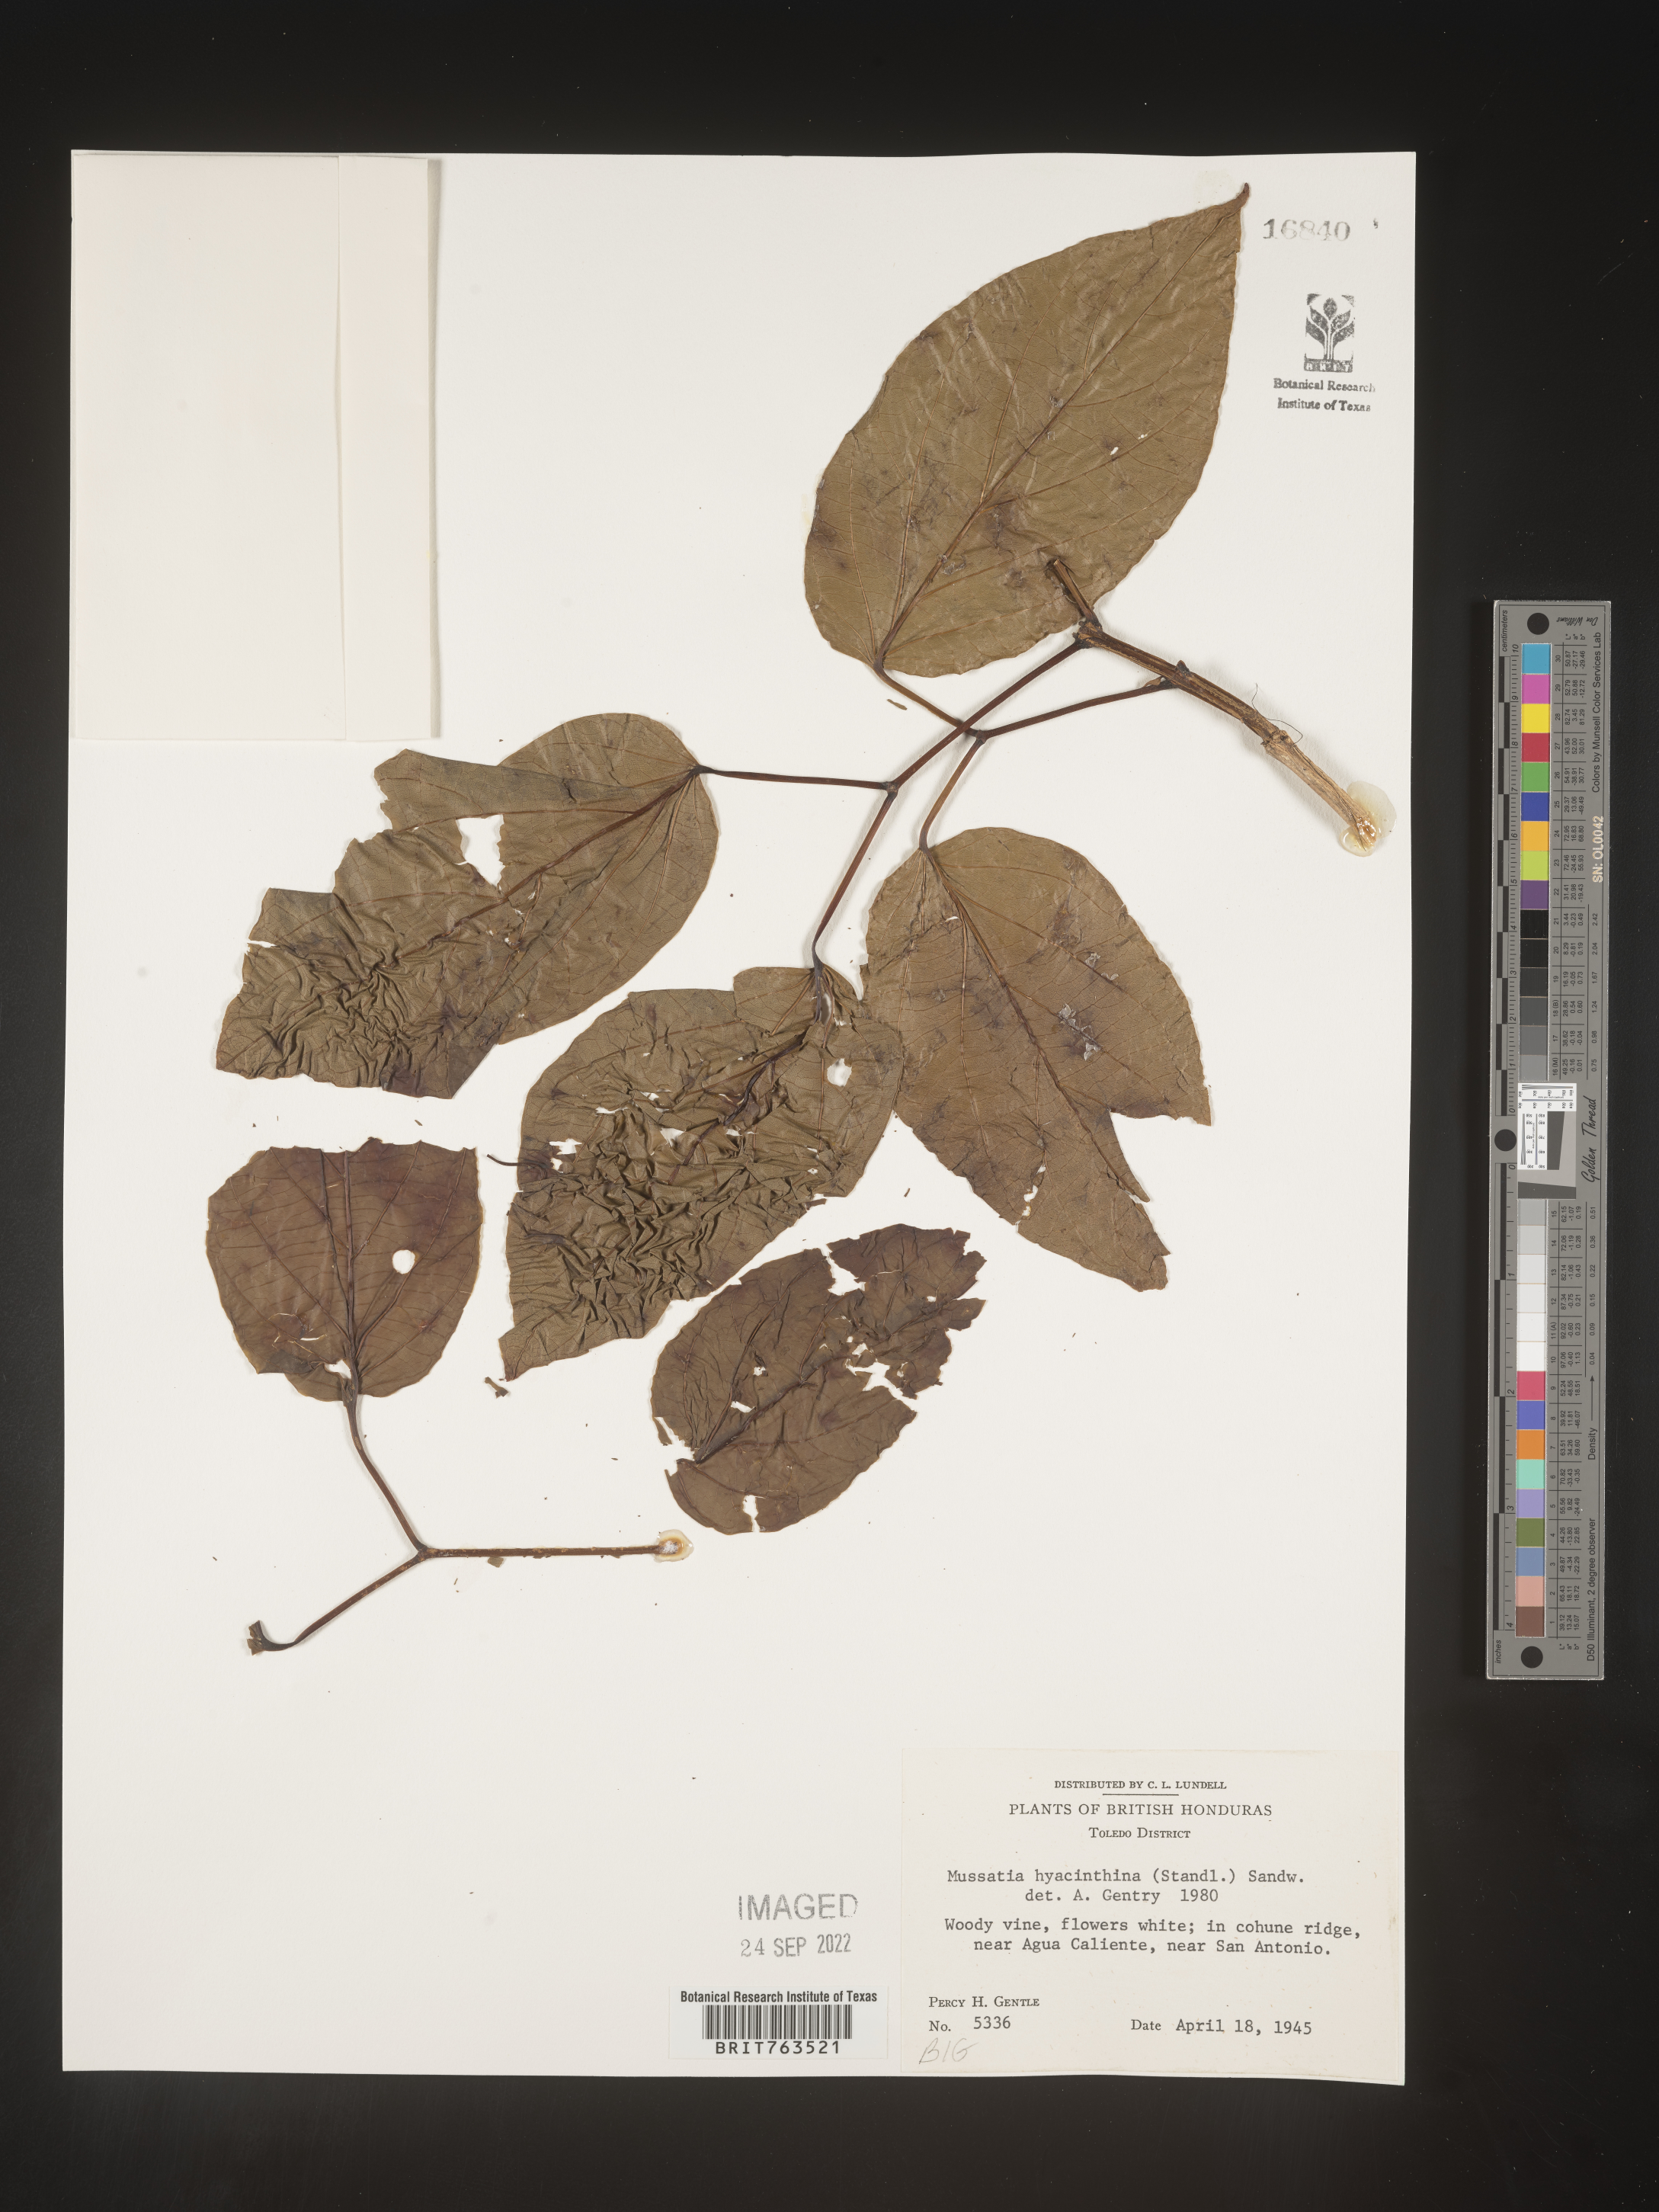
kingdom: Plantae
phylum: Tracheophyta
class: Magnoliopsida
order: Lamiales
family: Bignoniaceae
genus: Mussatia
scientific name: Mussatia
